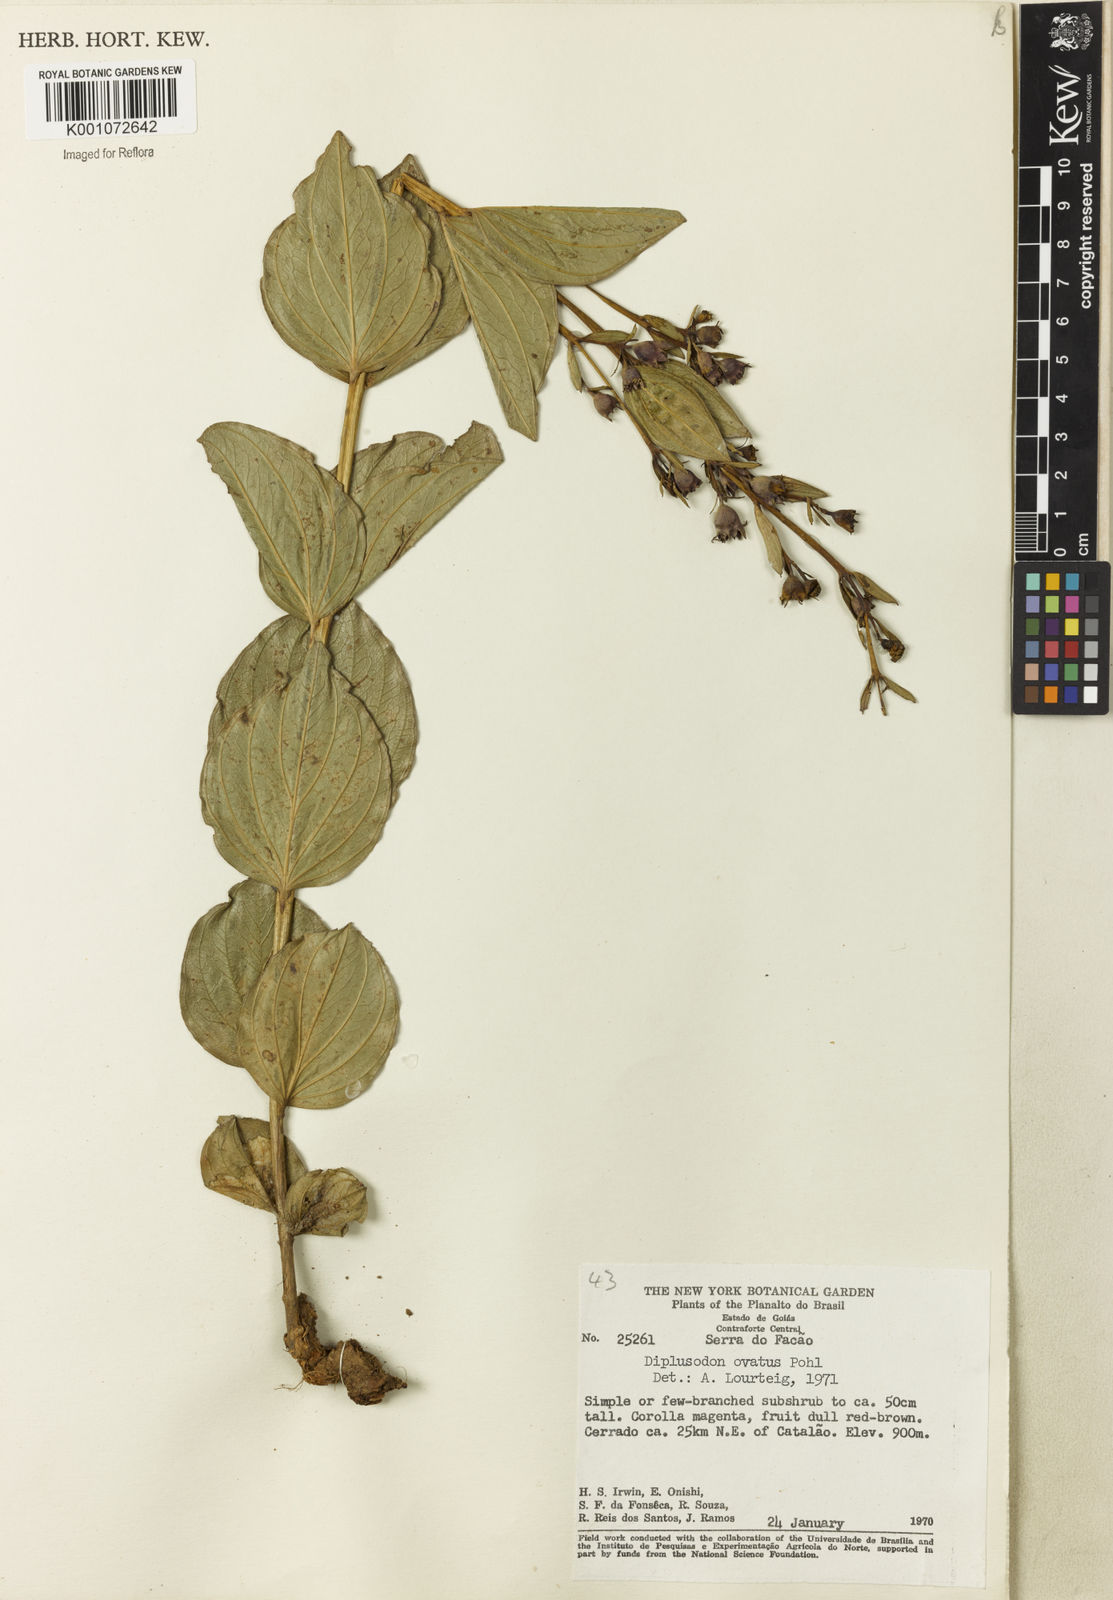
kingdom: Plantae
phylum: Tracheophyta
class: Magnoliopsida
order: Myrtales
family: Lythraceae
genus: Diplusodon
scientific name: Diplusodon ovatus
